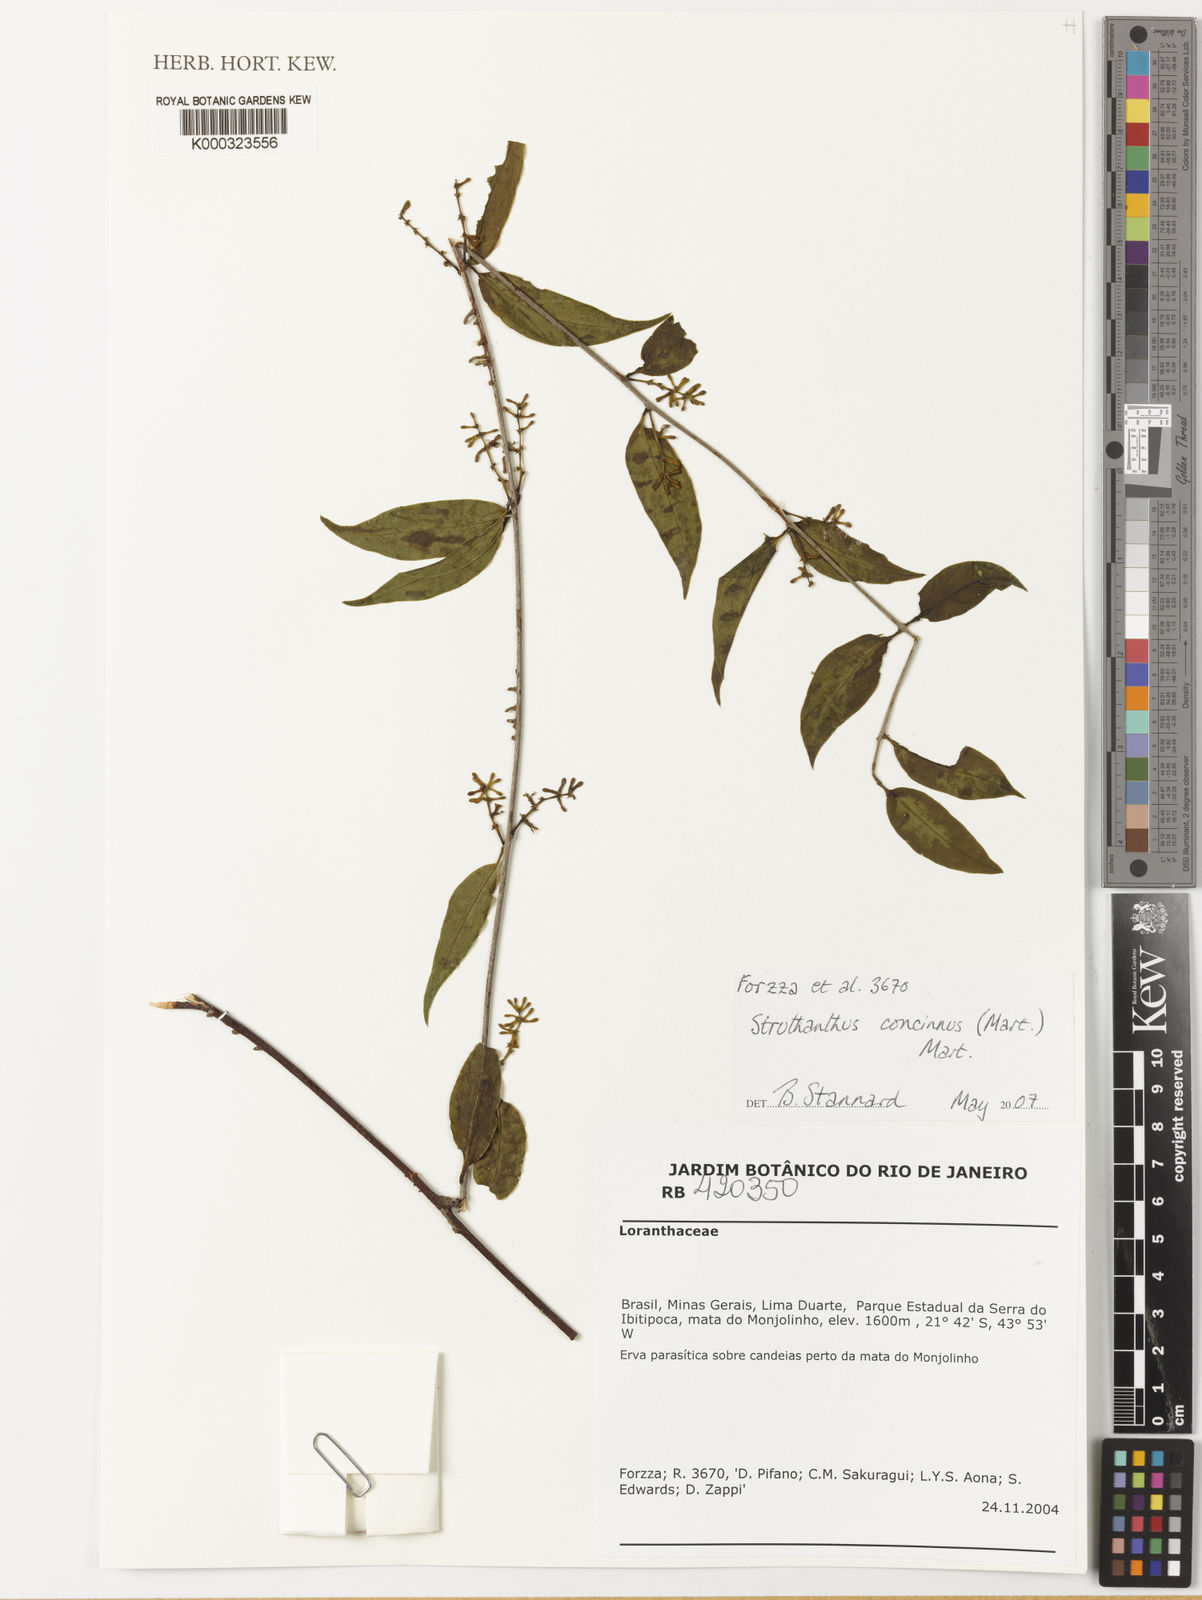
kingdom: Plantae
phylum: Tracheophyta
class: Magnoliopsida
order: Santalales
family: Loranthaceae
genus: Struthanthus
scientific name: Struthanthus
